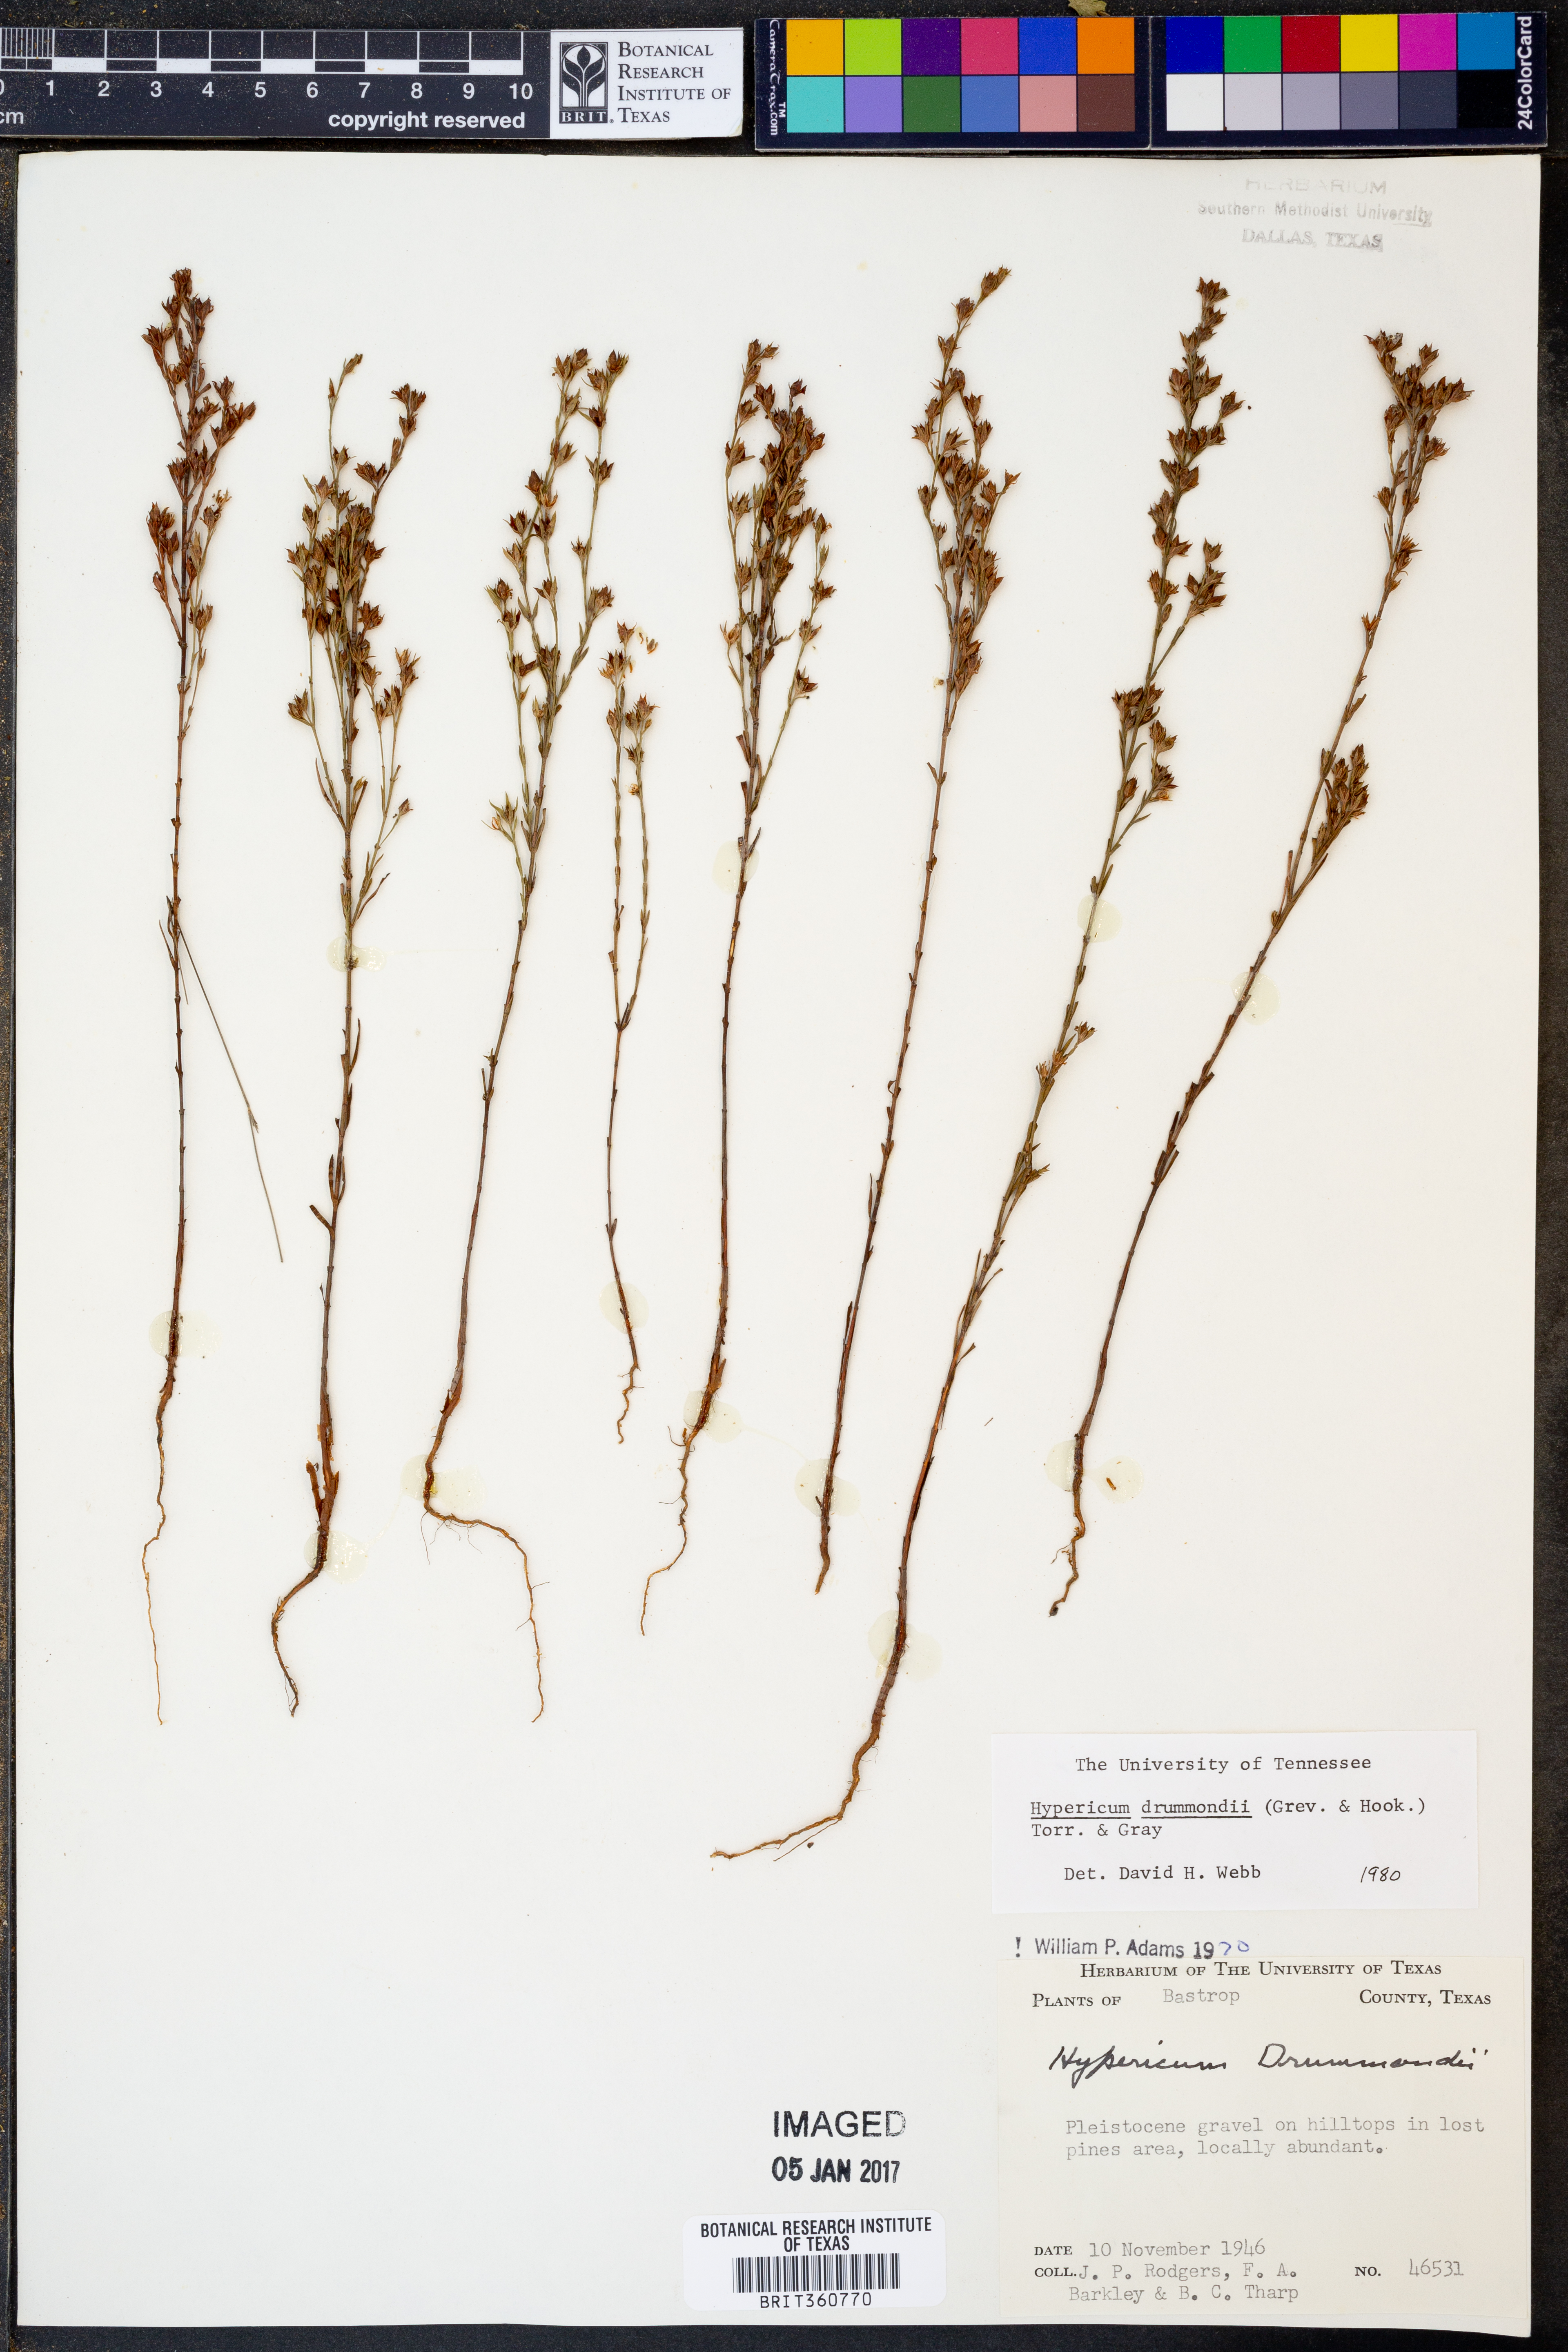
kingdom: Plantae
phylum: Tracheophyta
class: Magnoliopsida
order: Malpighiales
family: Hypericaceae
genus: Hypericum
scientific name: Hypericum drummondii
